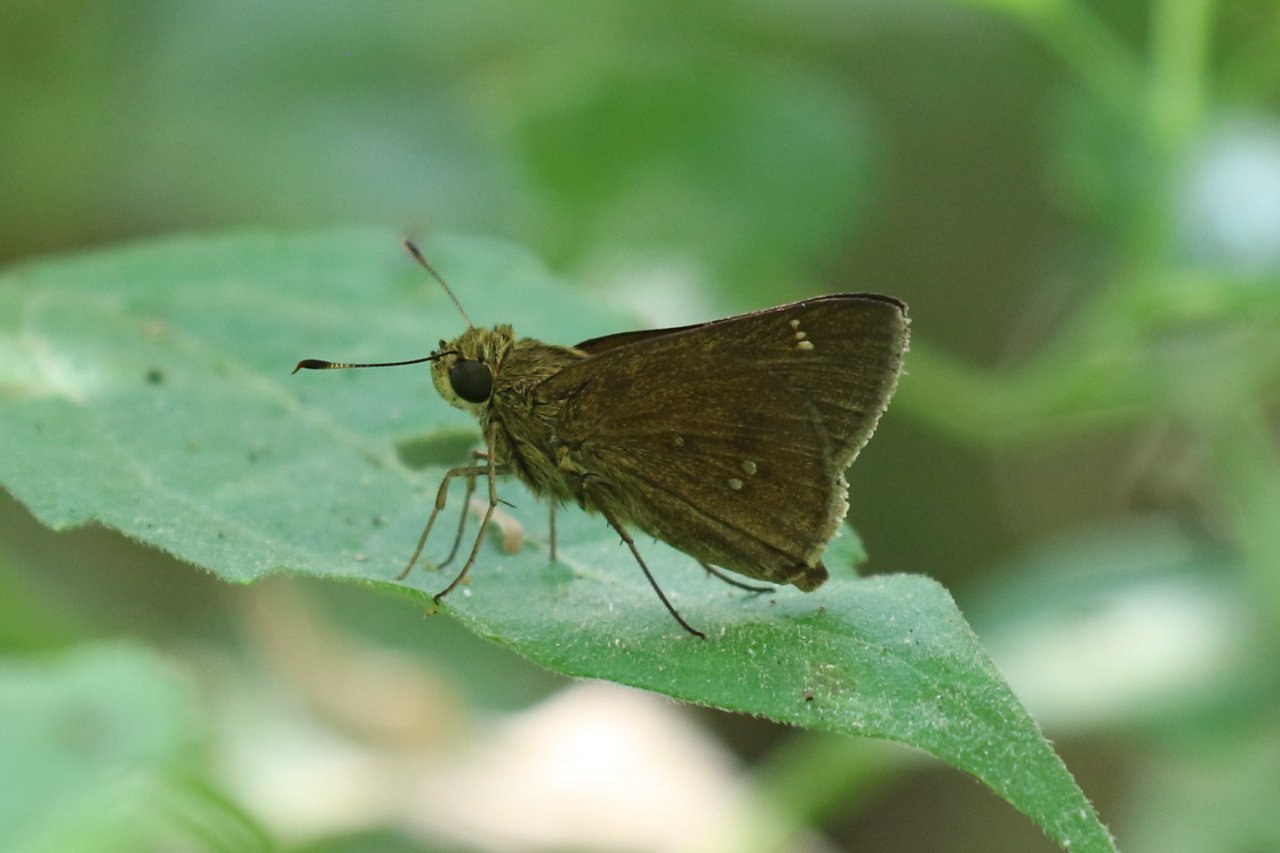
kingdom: Animalia
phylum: Arthropoda
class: Insecta
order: Lepidoptera
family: Hesperiidae
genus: Decinea
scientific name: Decinea percosius
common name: Double-dotted Skipper
